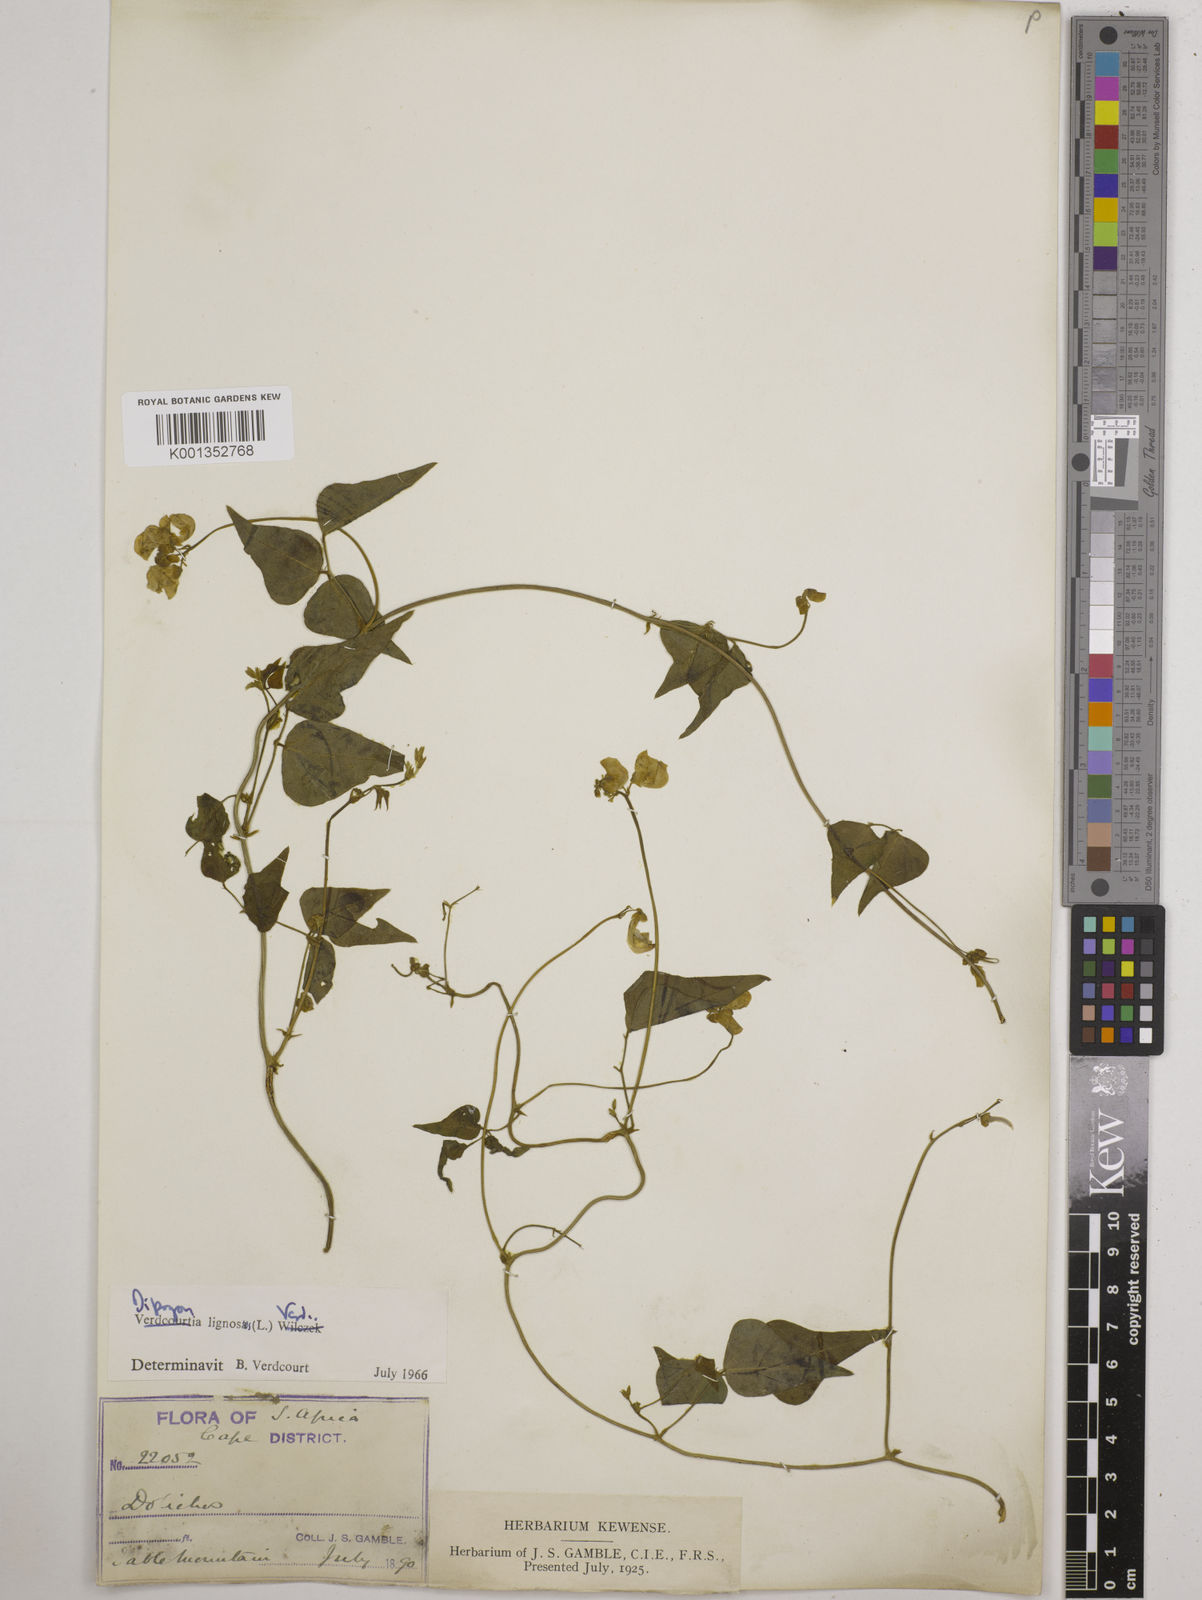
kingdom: Plantae
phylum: Tracheophyta
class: Magnoliopsida
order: Fabales
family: Fabaceae
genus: Dipogon
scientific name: Dipogon lignosus
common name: Okie bean
